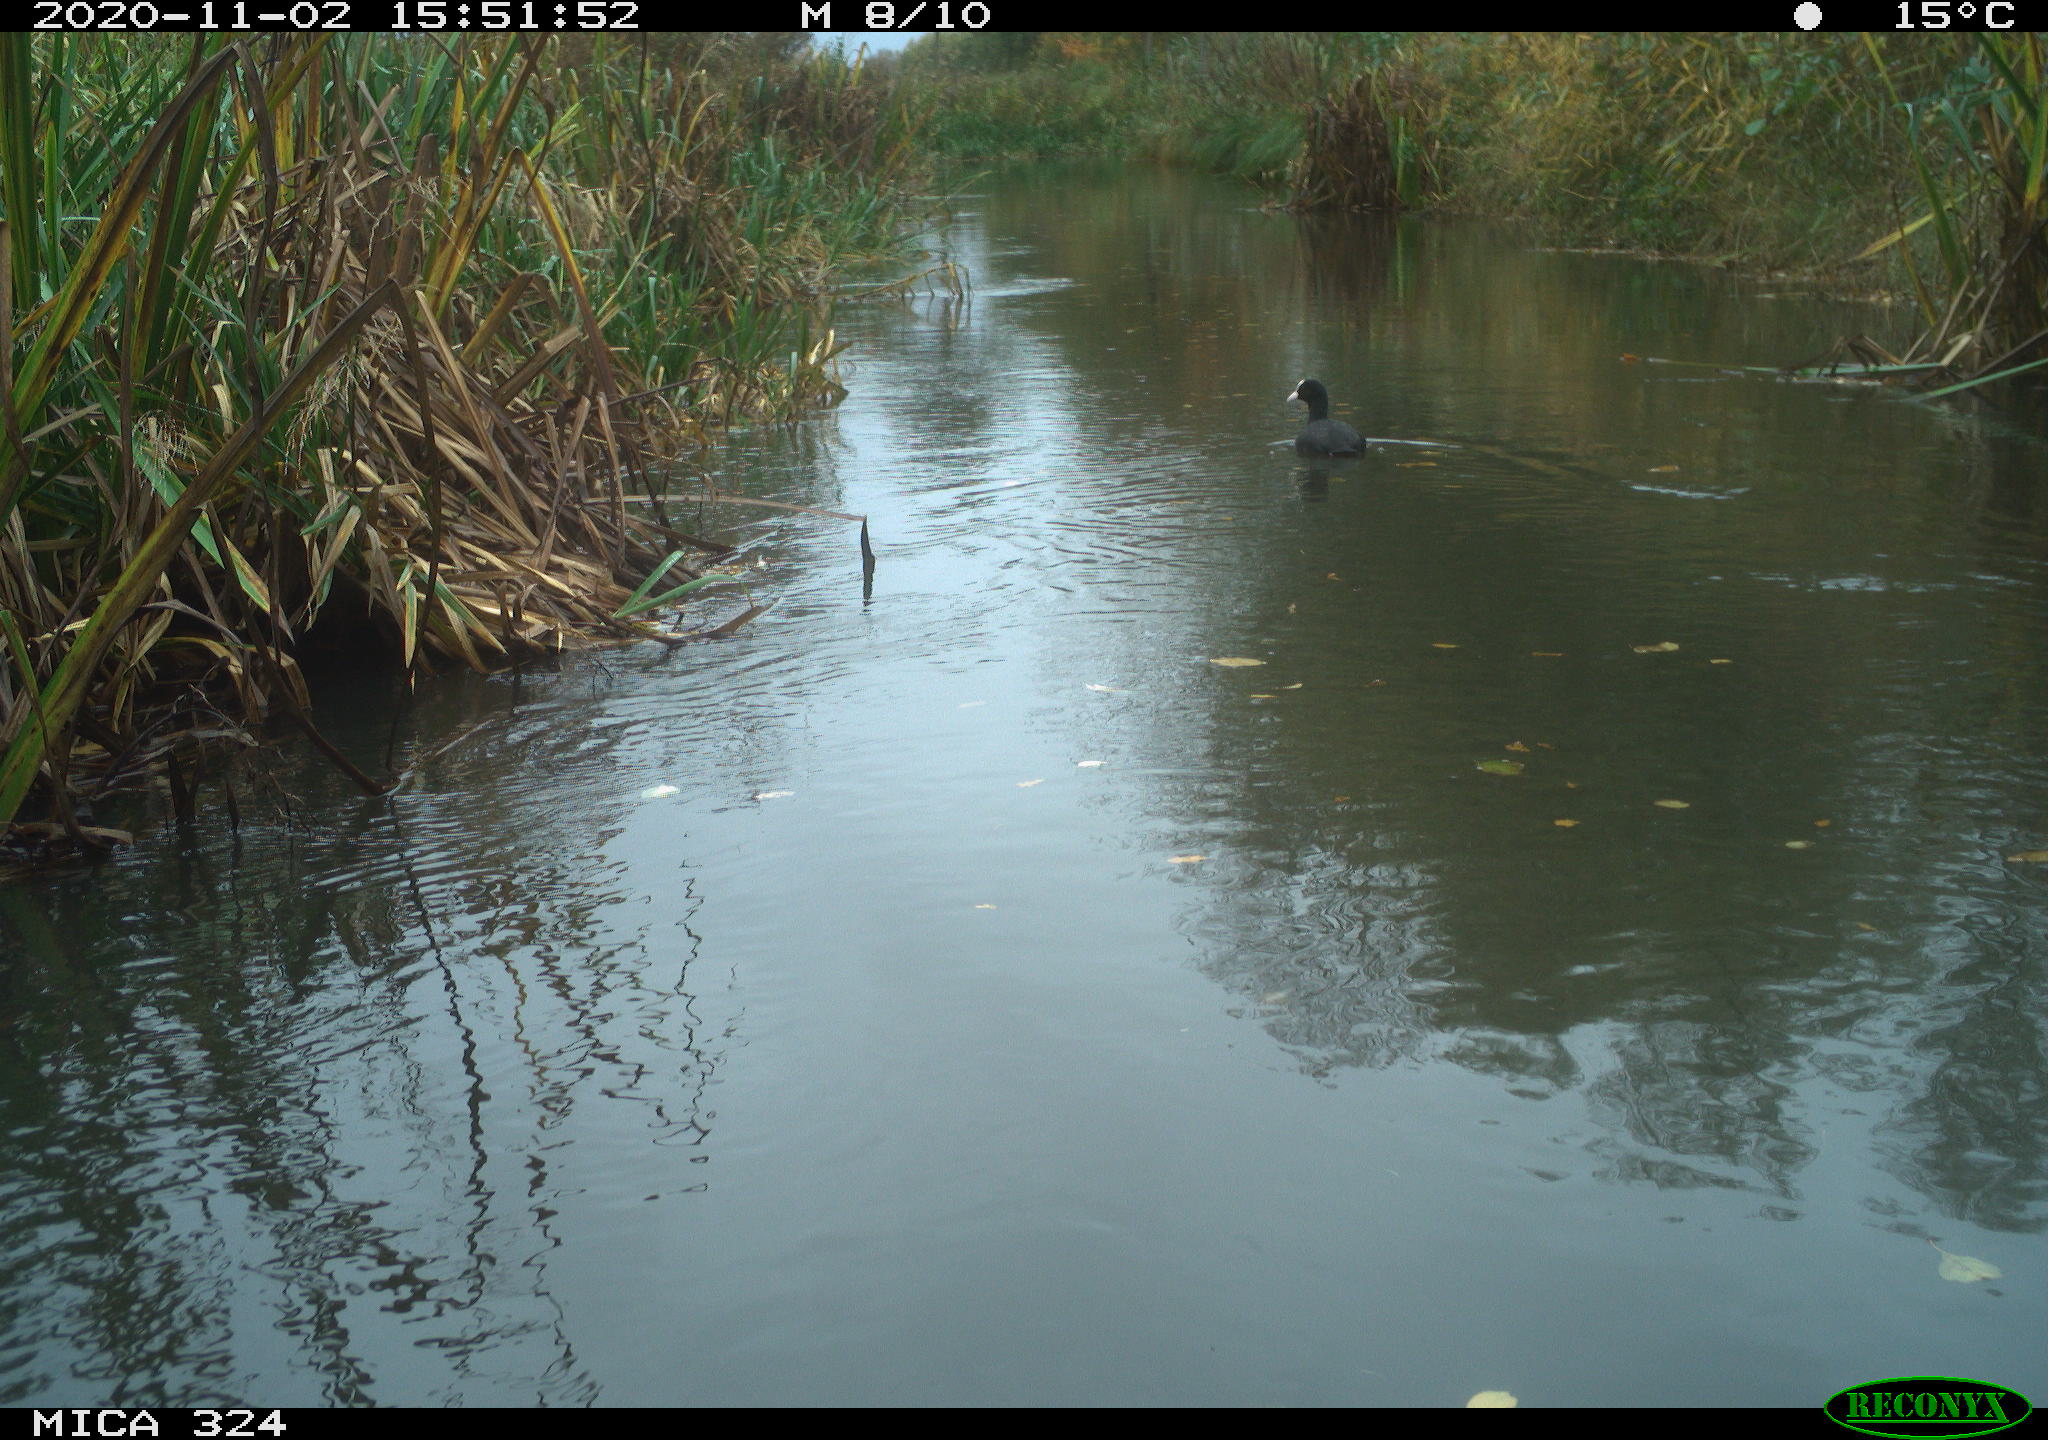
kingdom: Animalia
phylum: Chordata
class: Aves
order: Gruiformes
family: Rallidae
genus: Fulica
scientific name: Fulica atra
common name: Eurasian coot
